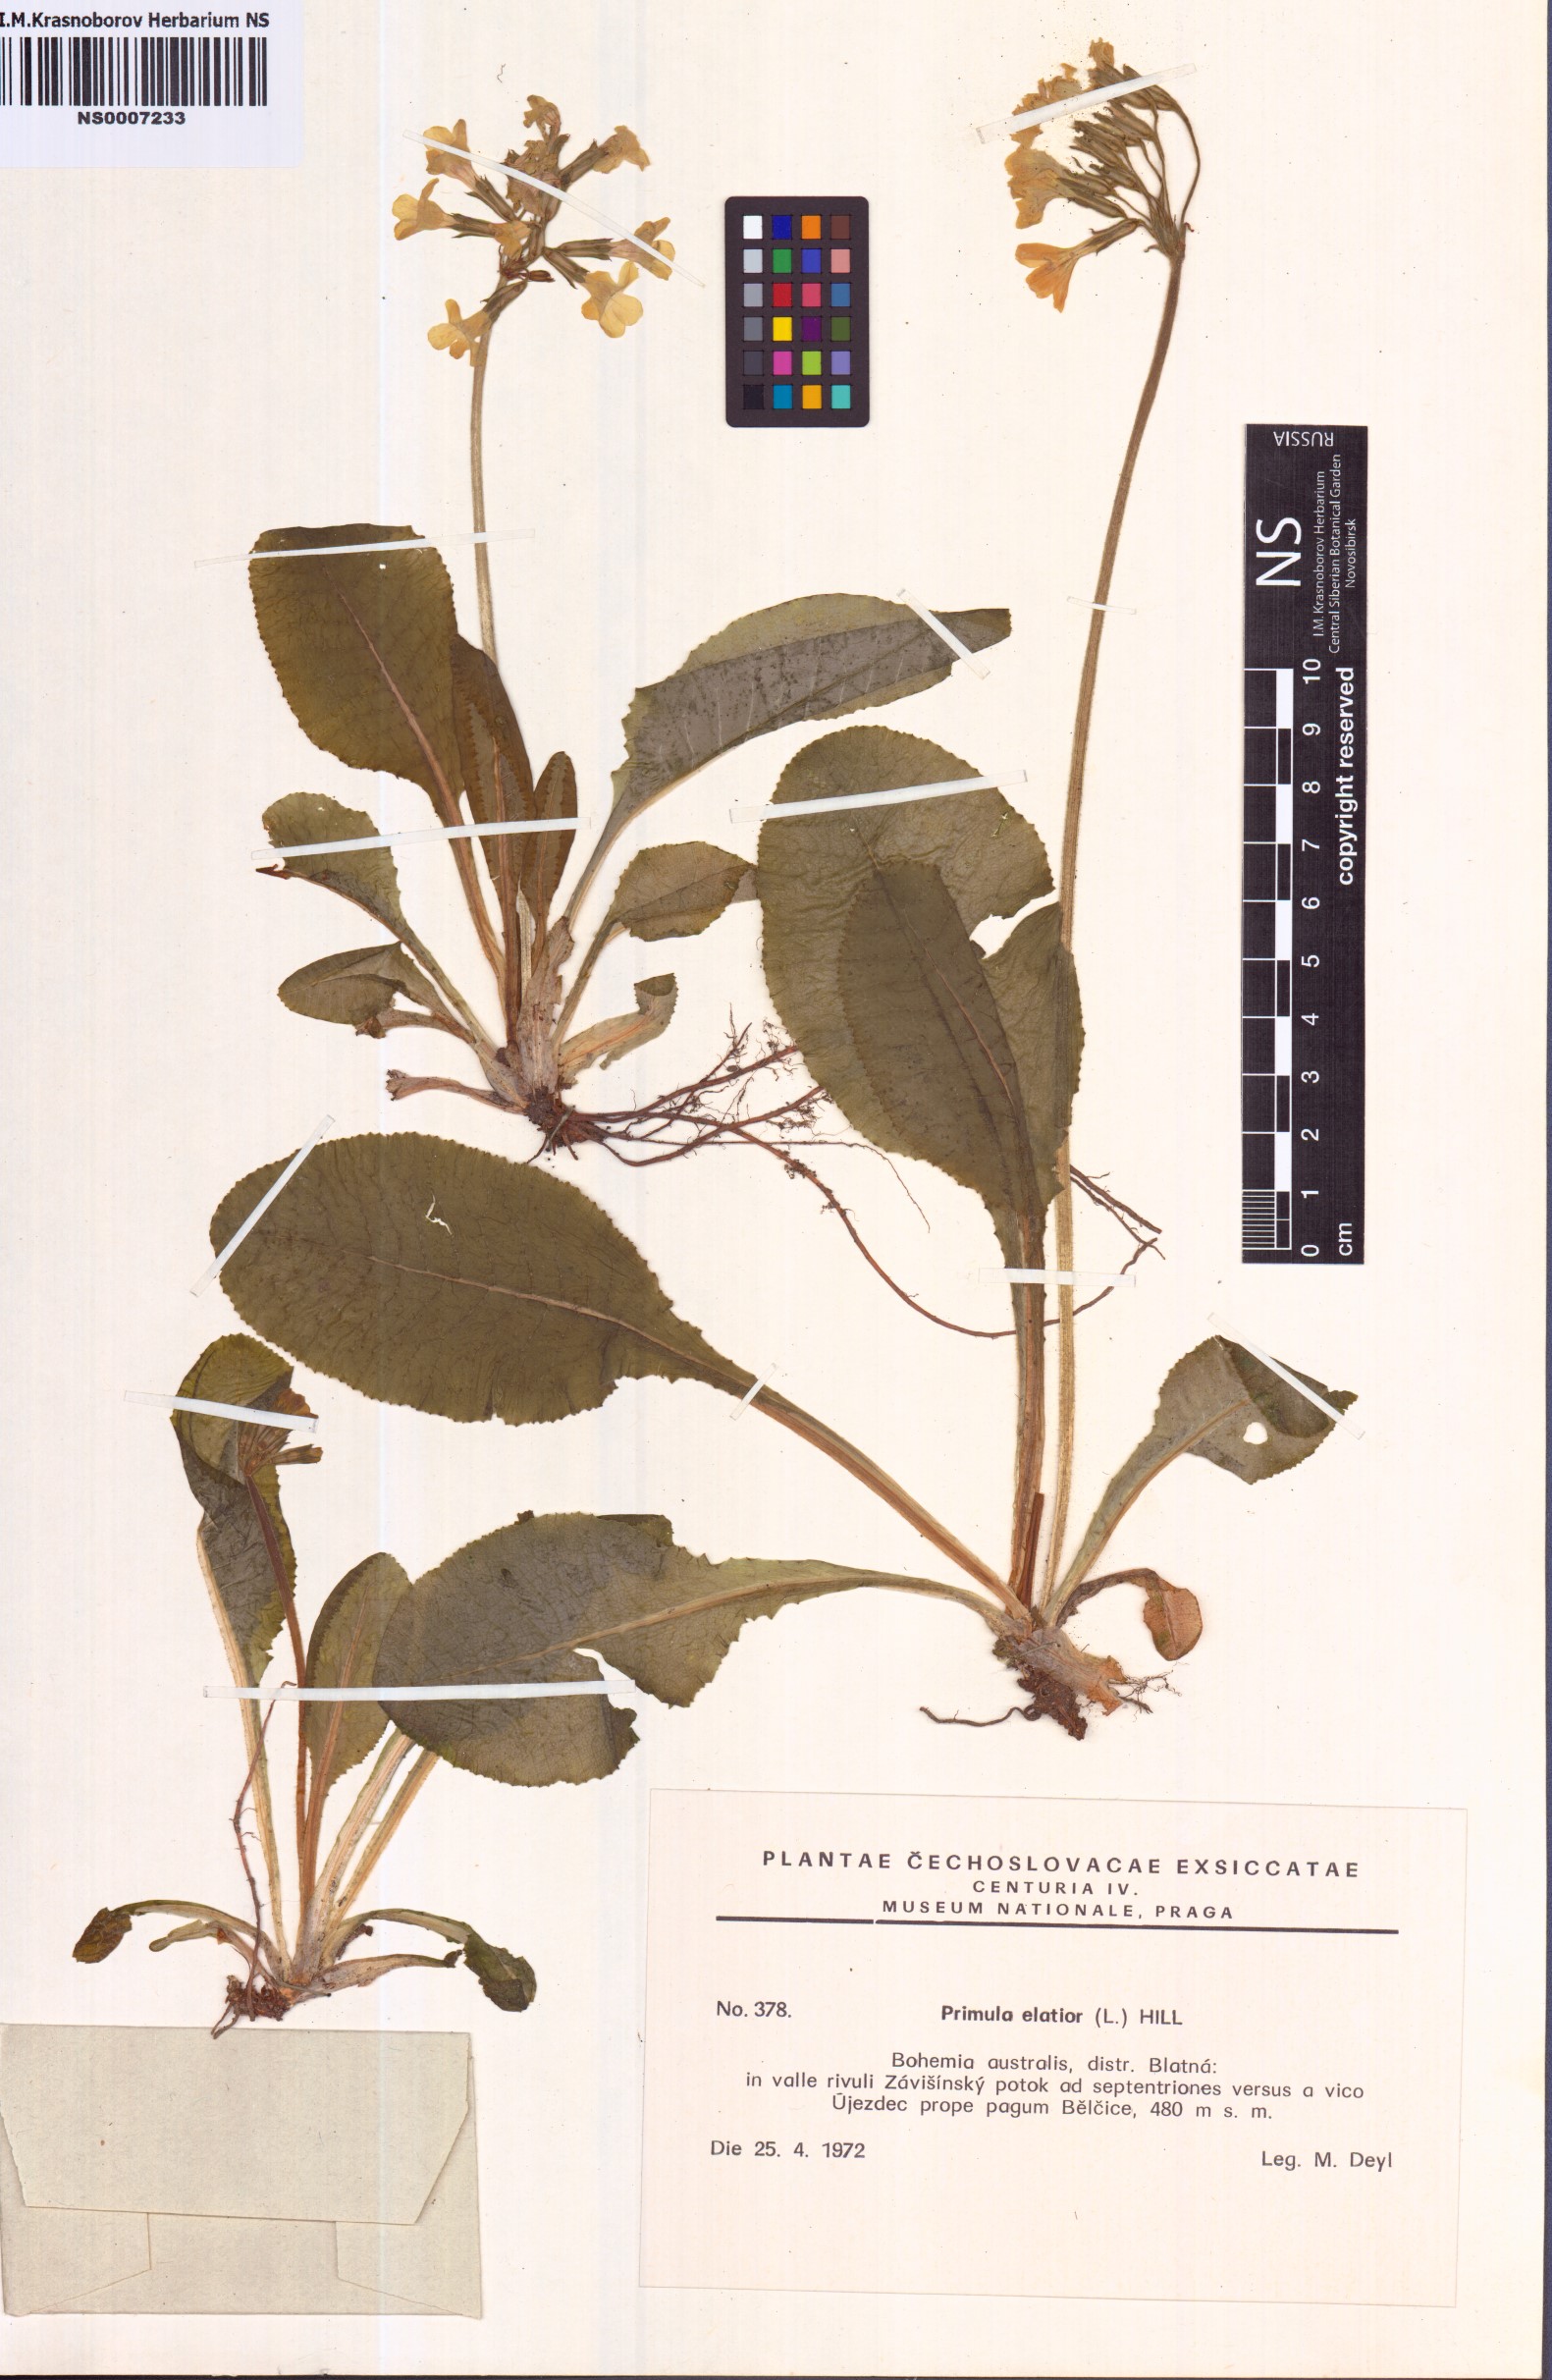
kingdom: Plantae
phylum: Tracheophyta
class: Magnoliopsida
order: Ericales
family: Primulaceae
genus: Primula
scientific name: Primula elatior
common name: Oxlip
